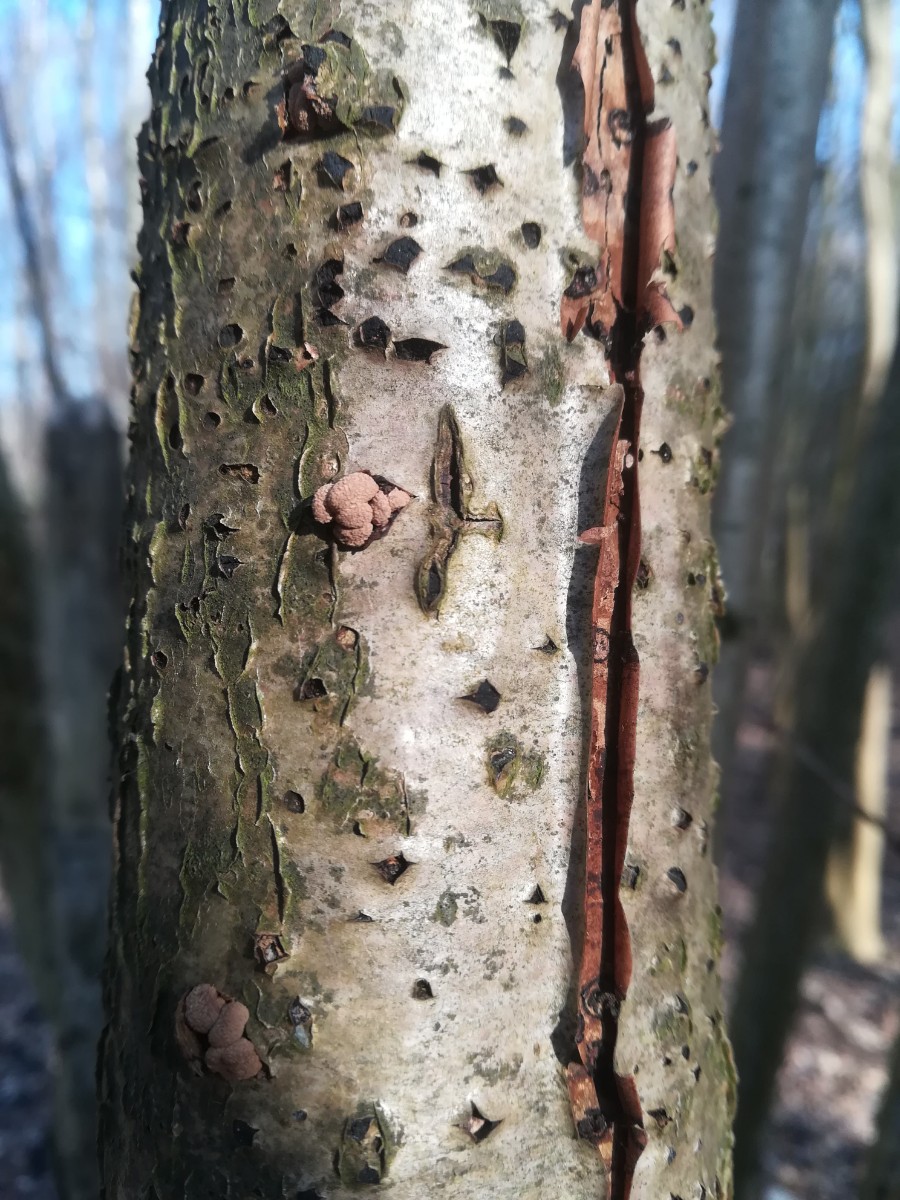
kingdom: Fungi
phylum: Ascomycota
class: Leotiomycetes
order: Helotiales
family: Cenangiaceae
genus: Encoelia
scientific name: Encoelia furfuracea
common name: hassel-læderskive
